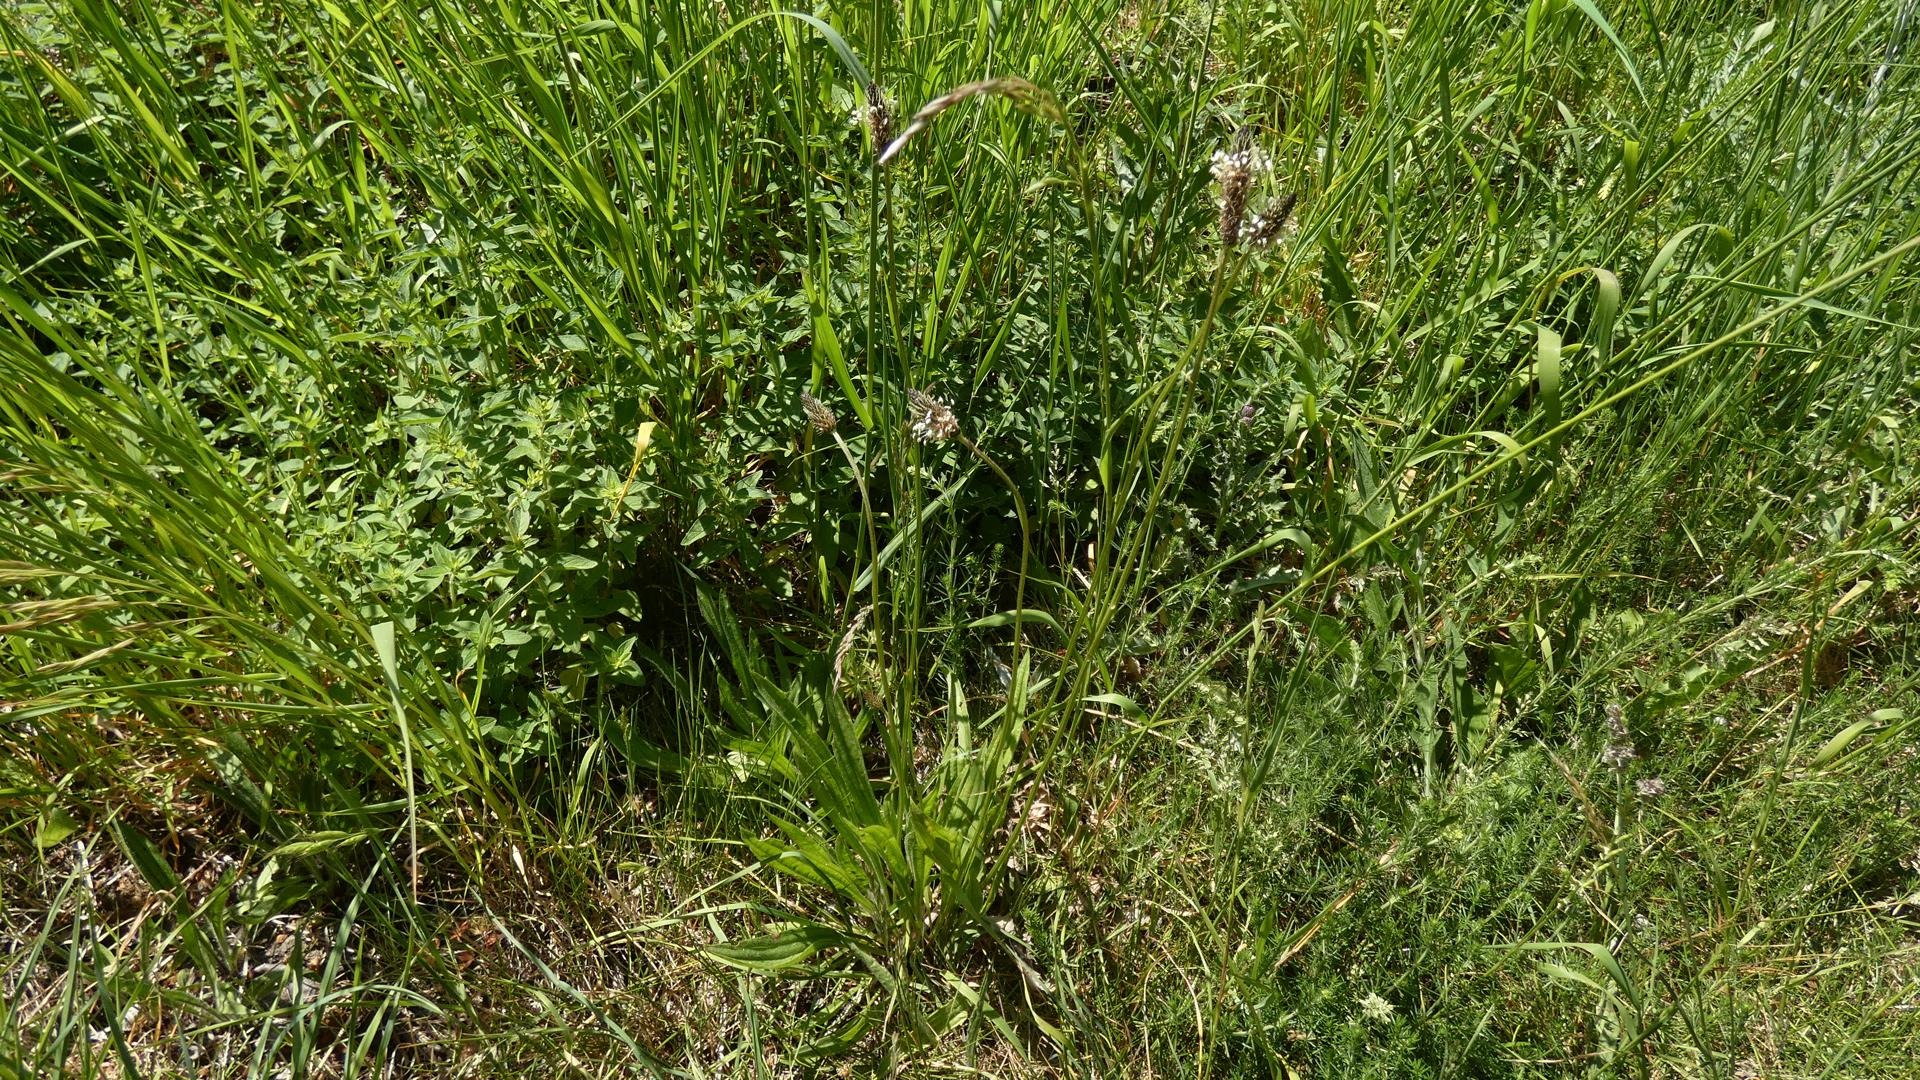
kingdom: Plantae
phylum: Tracheophyta
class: Magnoliopsida
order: Lamiales
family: Plantaginaceae
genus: Plantago
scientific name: Plantago lanceolata
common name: Lancet-vejbred
